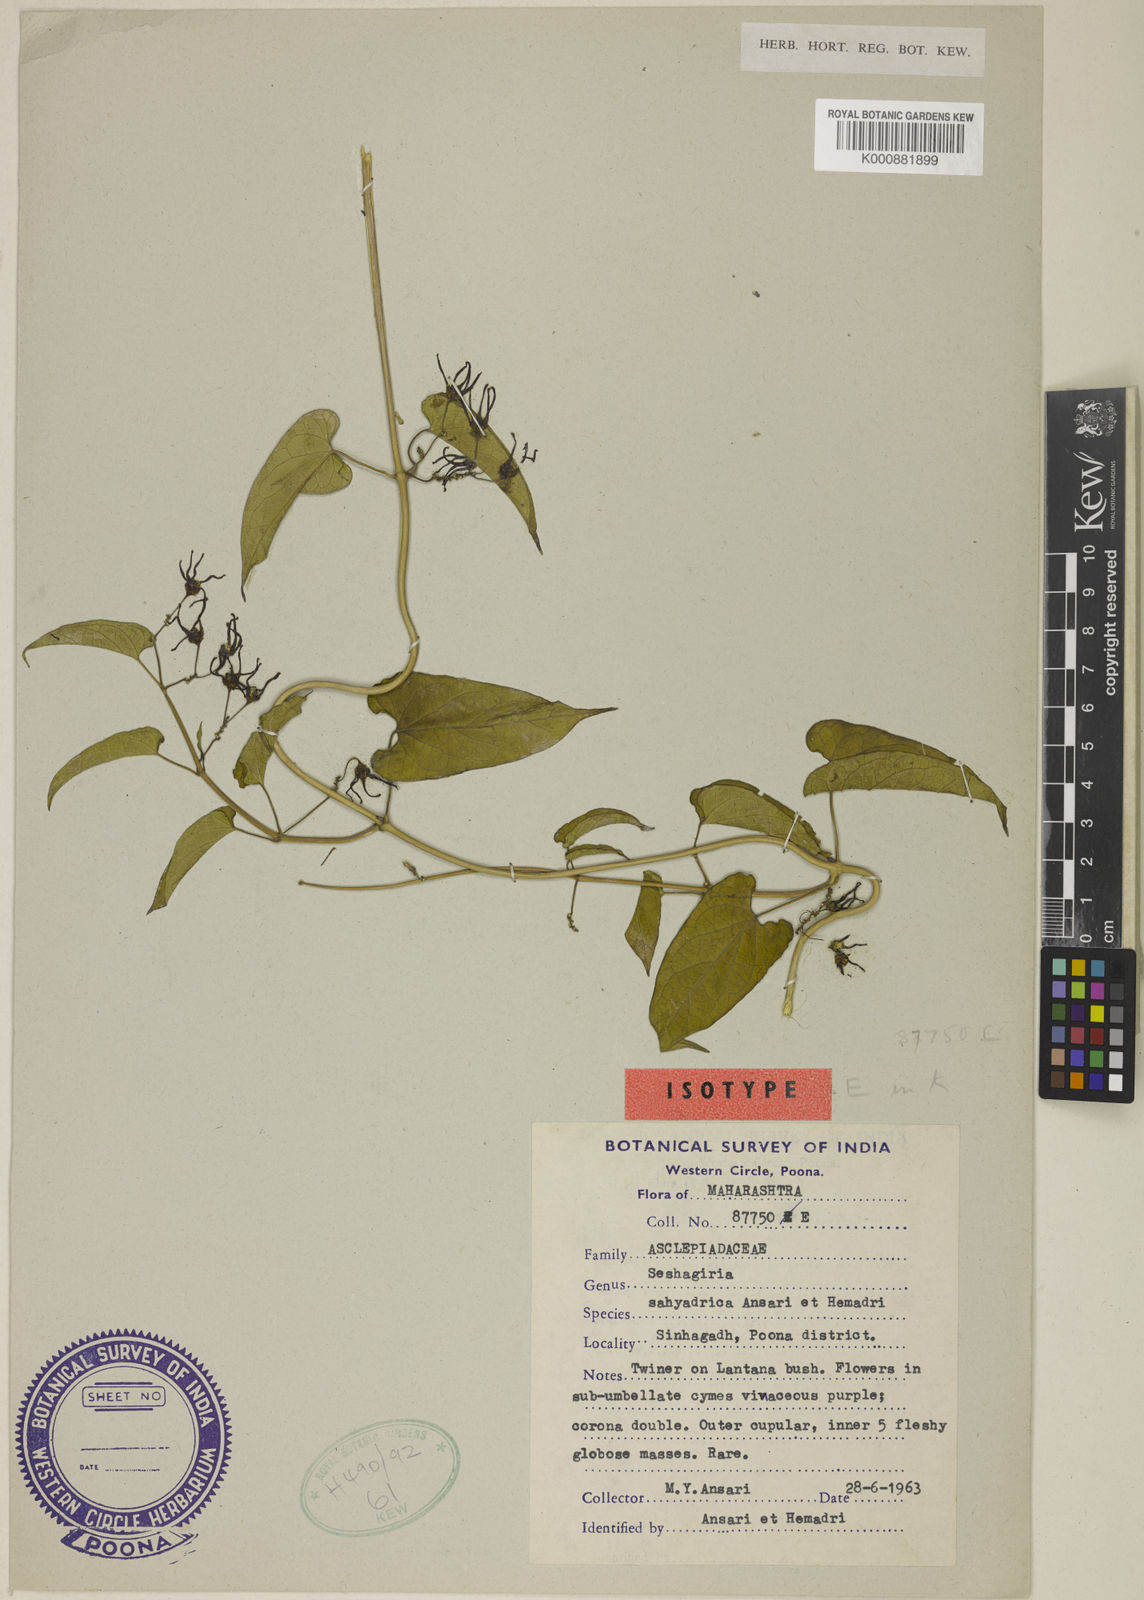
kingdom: Plantae
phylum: Tracheophyta
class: Magnoliopsida
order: Gentianales
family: Apocynaceae
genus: Cynanchum
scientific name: Cynanchum sahyadricum
